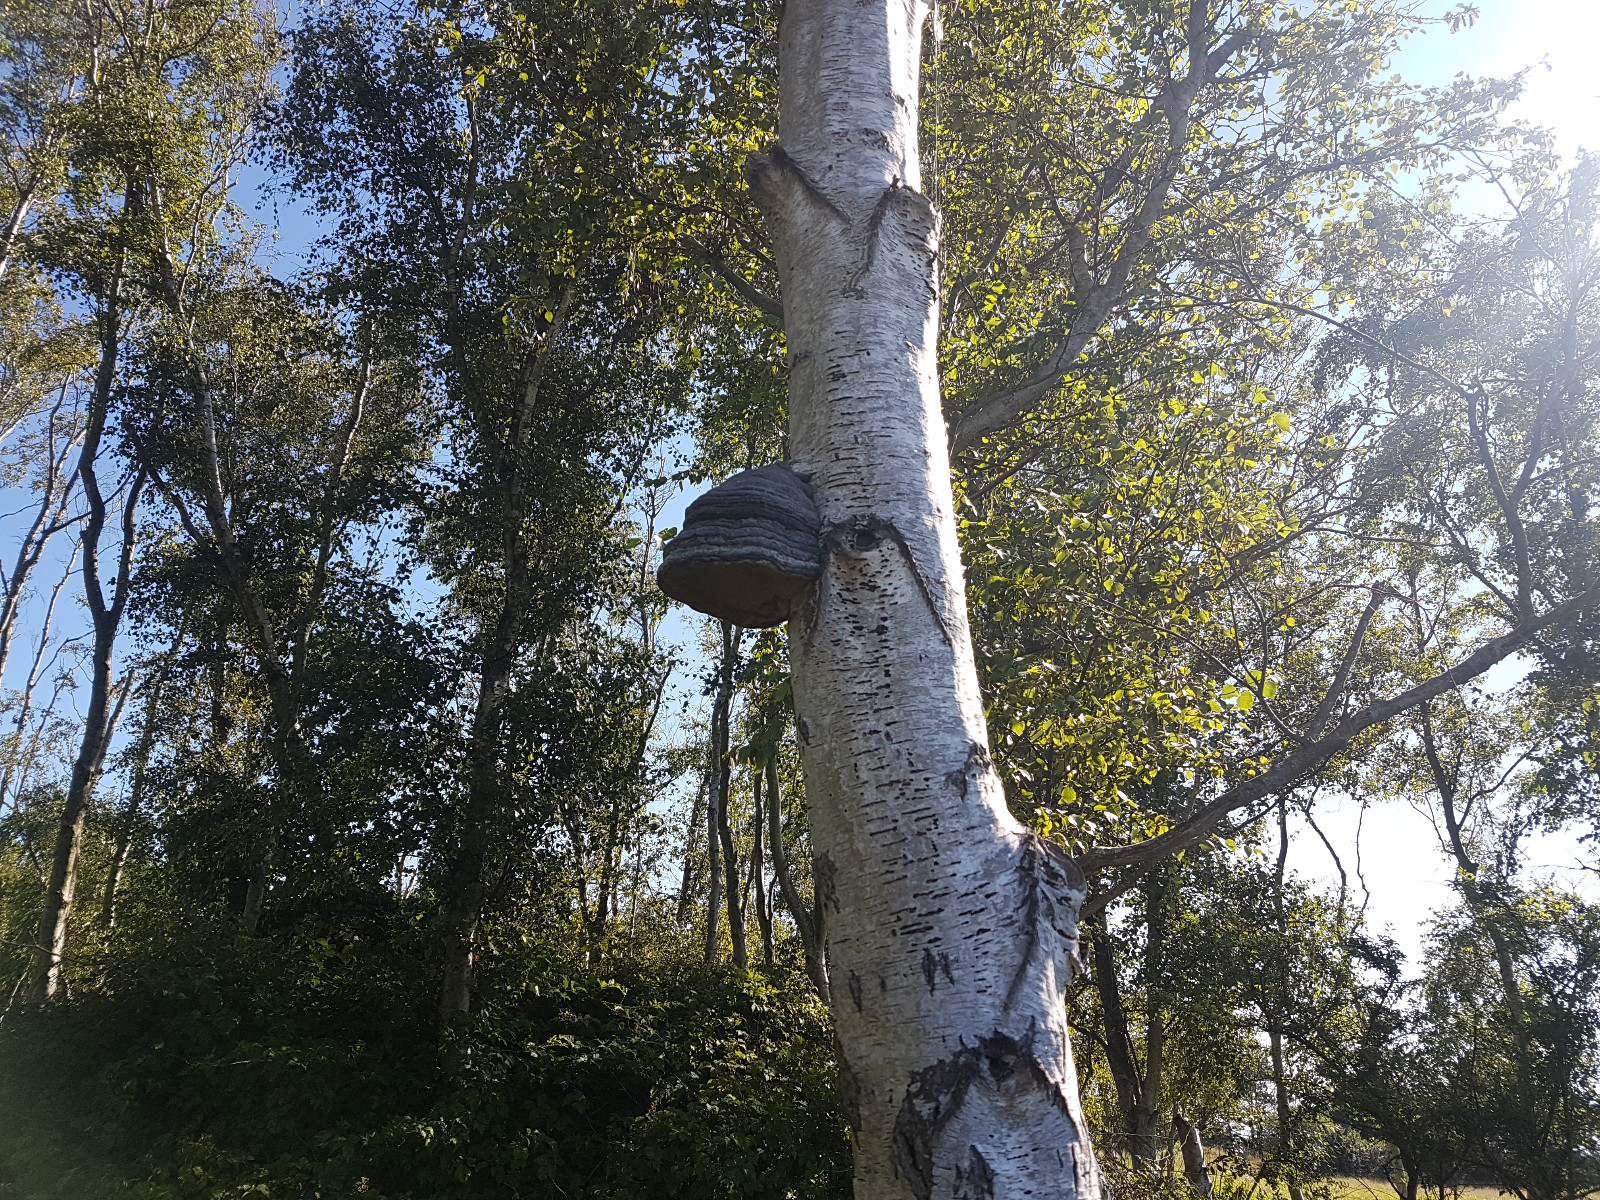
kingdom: Fungi
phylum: Basidiomycota
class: Agaricomycetes
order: Polyporales
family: Polyporaceae
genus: Fomes
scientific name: Fomes fomentarius
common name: tøndersvamp
